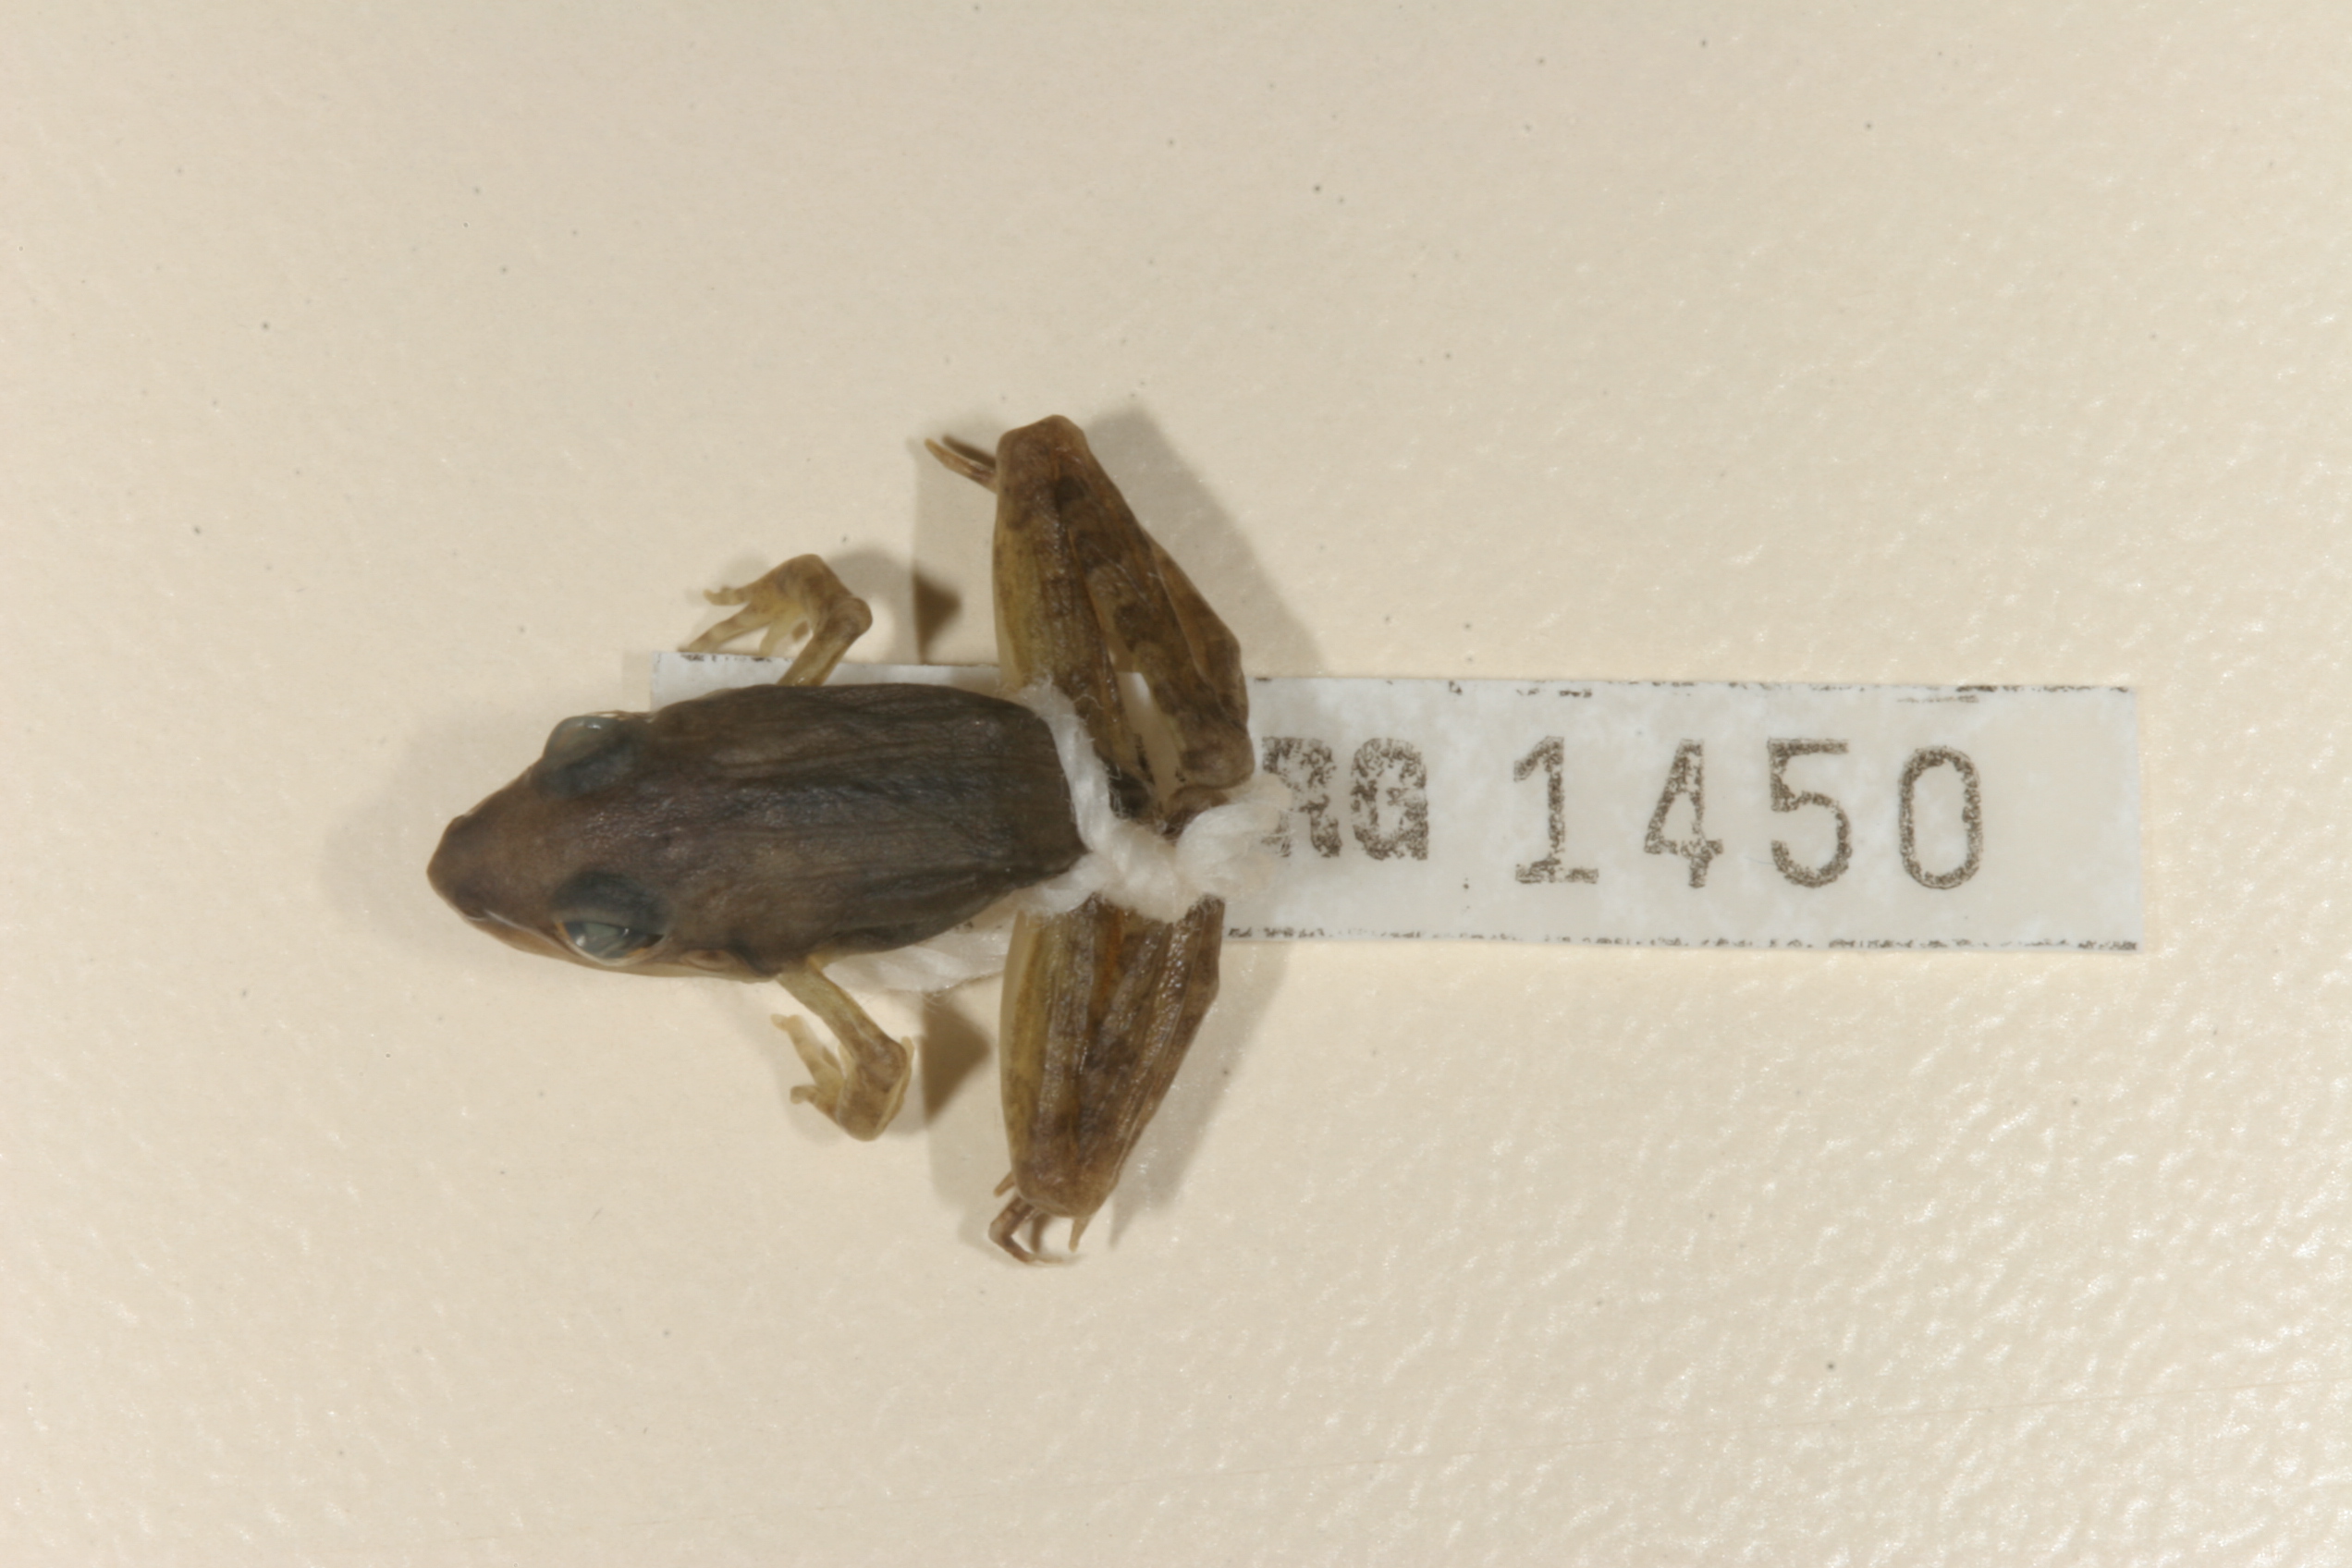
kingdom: Animalia
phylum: Chordata
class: Amphibia
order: Anura
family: Ptychadenidae
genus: Ptychadena
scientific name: Ptychadena anchietae
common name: Anchieta's ridged frog
